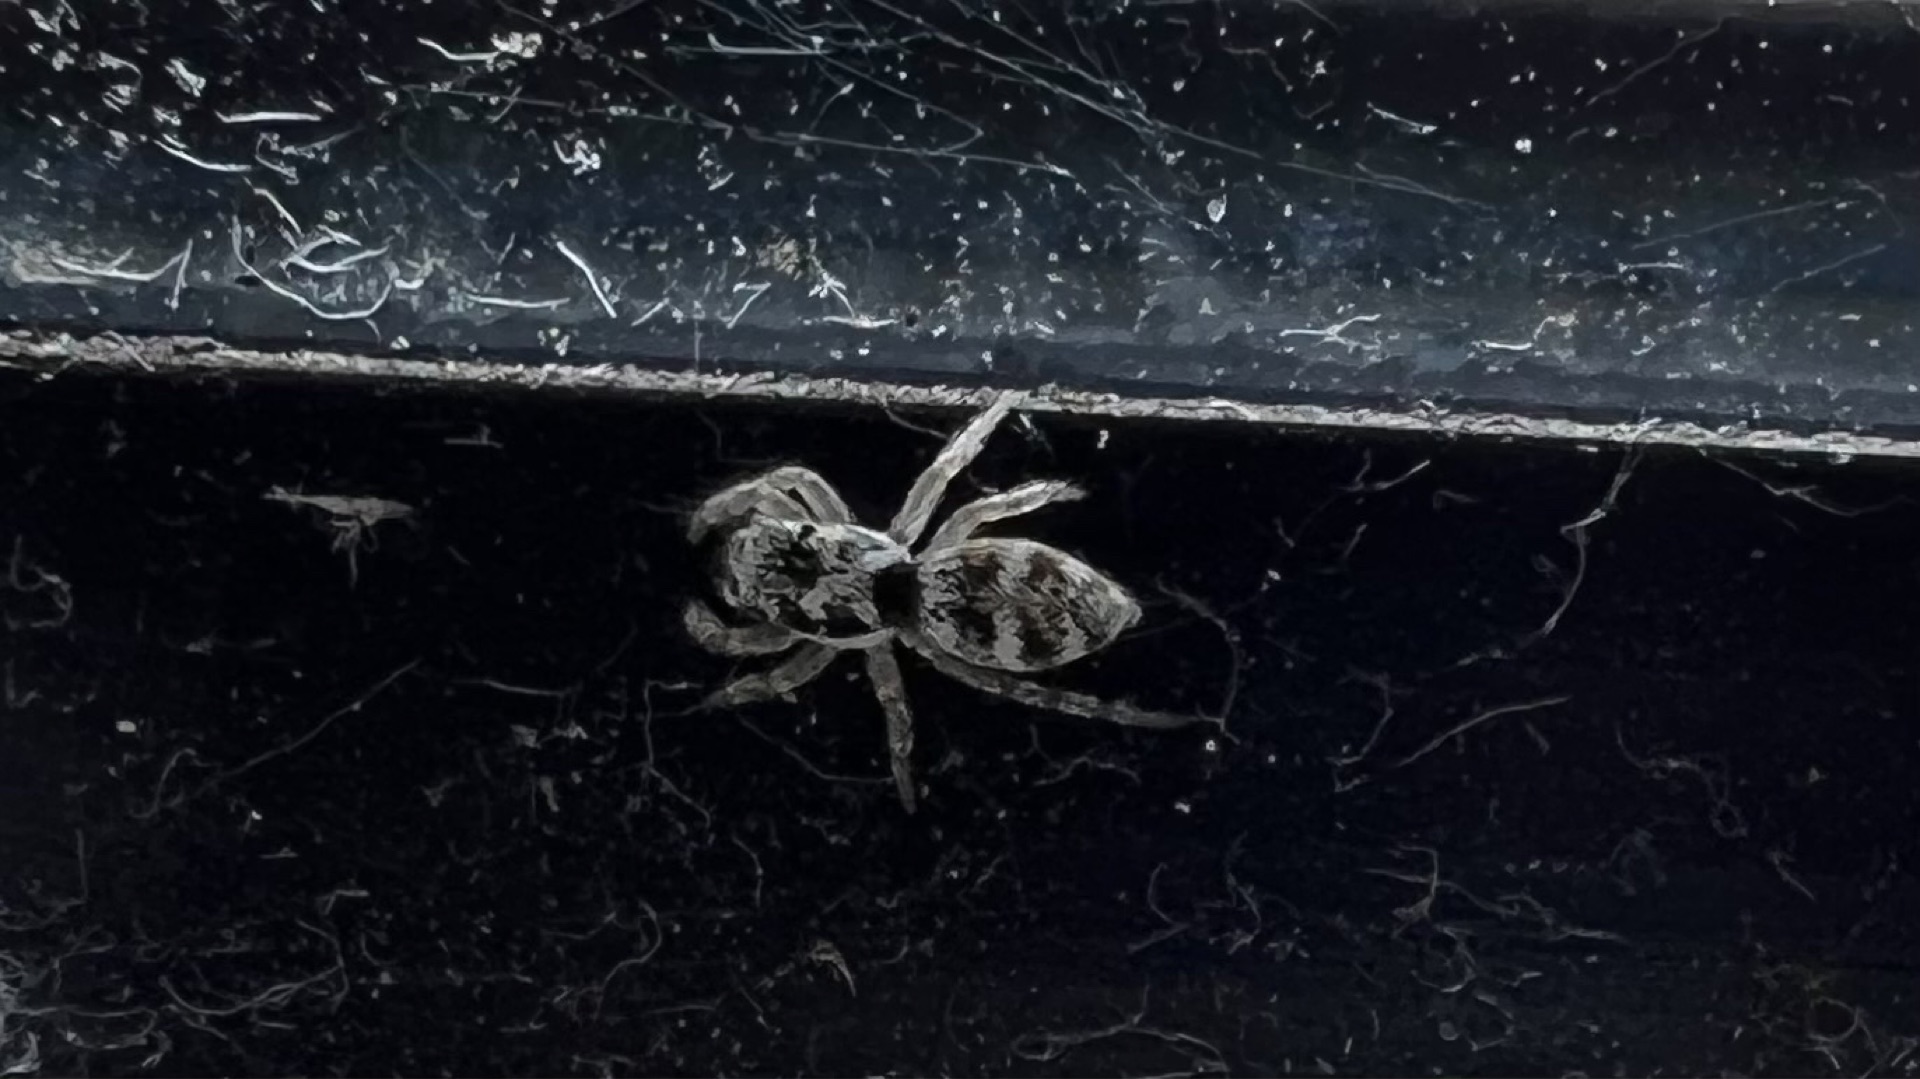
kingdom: Animalia
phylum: Arthropoda
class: Arachnida
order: Araneae
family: Salticidae
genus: Salticus
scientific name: Salticus
